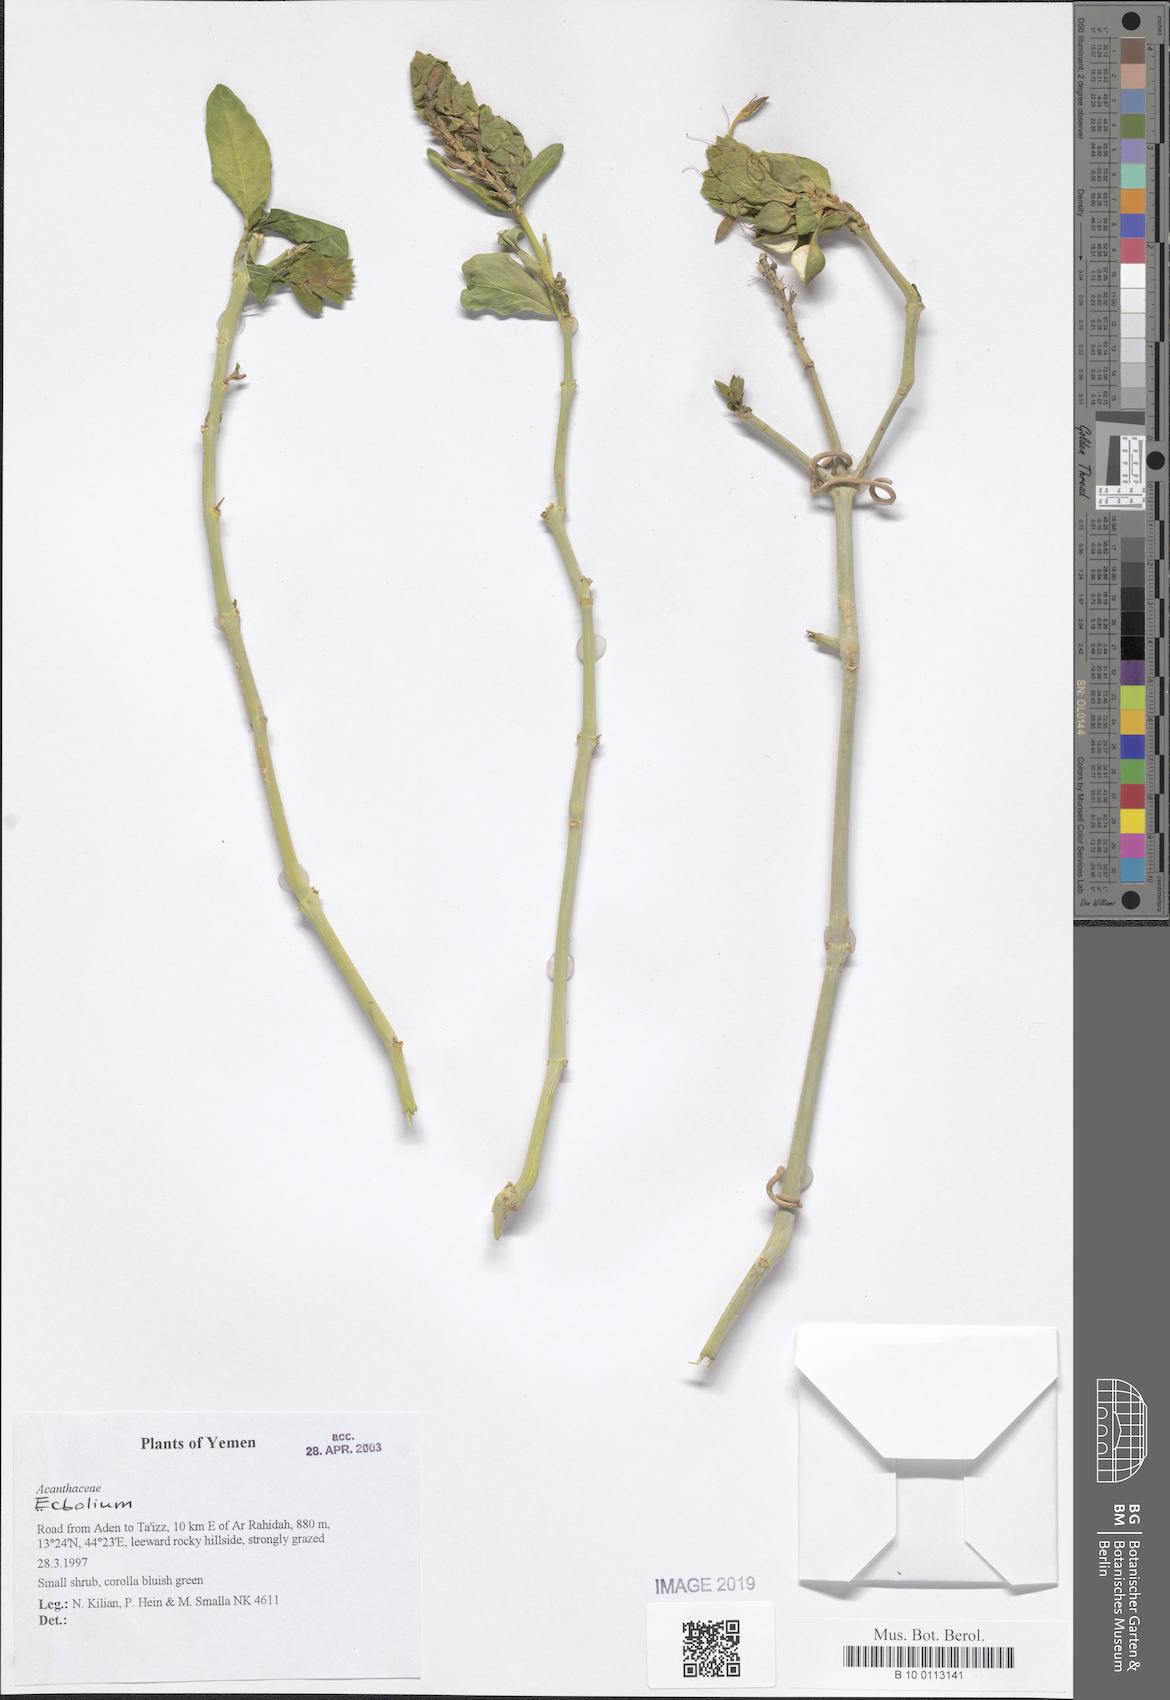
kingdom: Plantae
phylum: Tracheophyta
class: Magnoliopsida
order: Lamiales
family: Acanthaceae
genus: Ecbolium
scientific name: Ecbolium
